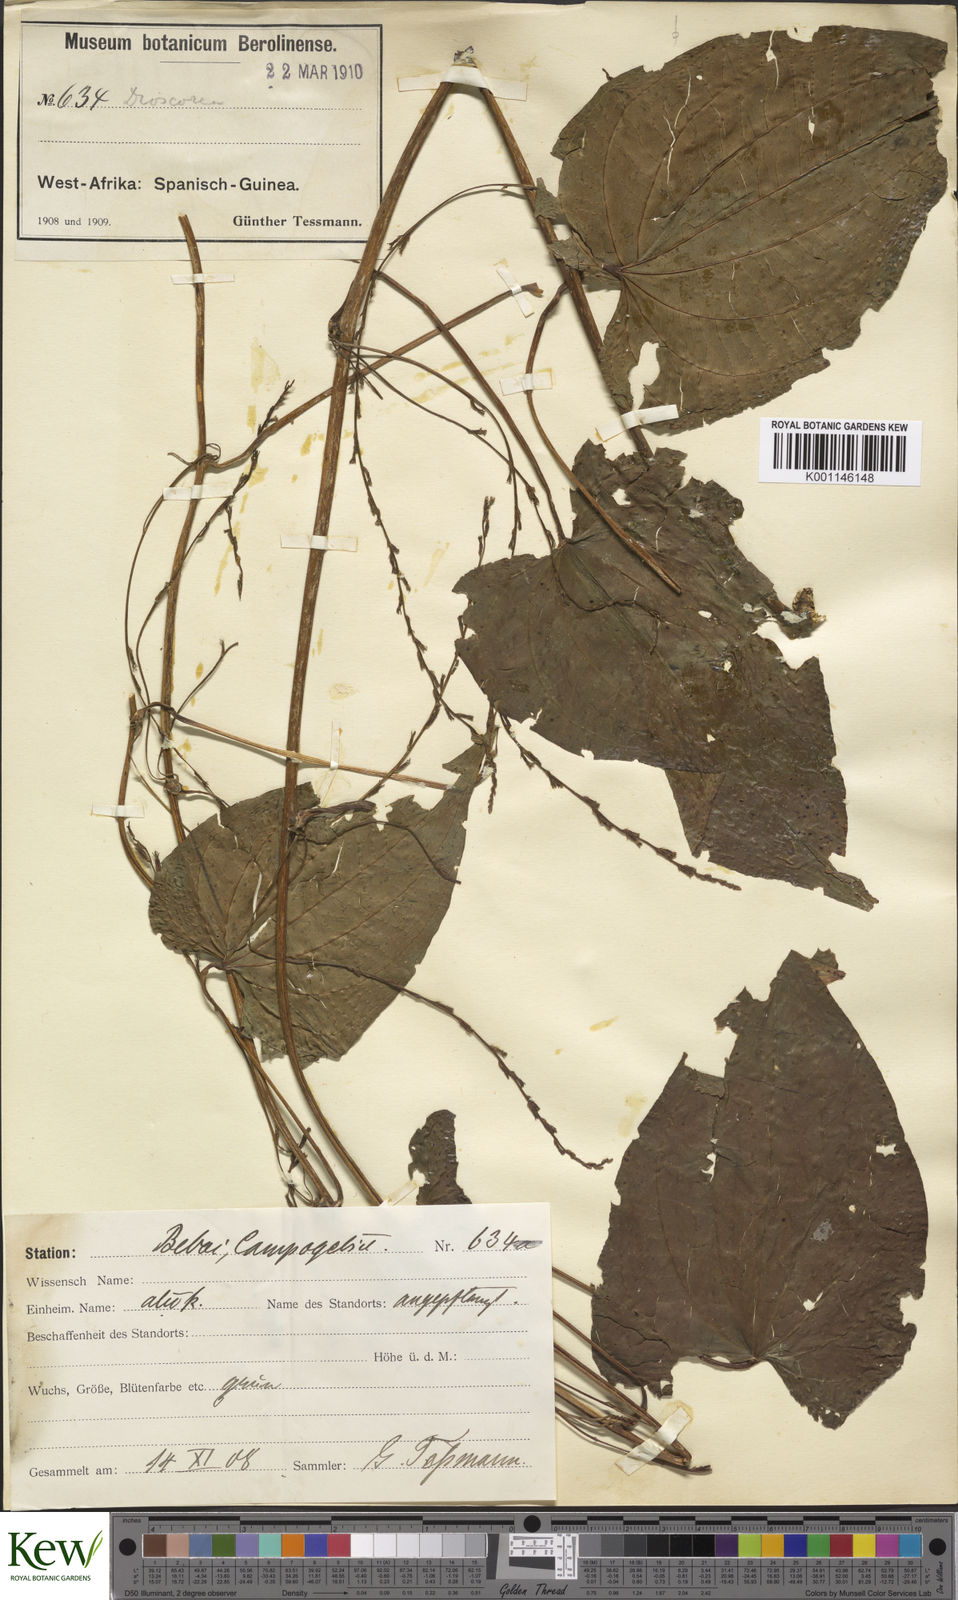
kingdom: Plantae
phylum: Tracheophyta
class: Liliopsida
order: Dioscoreales
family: Dioscoreaceae
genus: Dioscorea
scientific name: Dioscorea bulbifera
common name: Air yam
